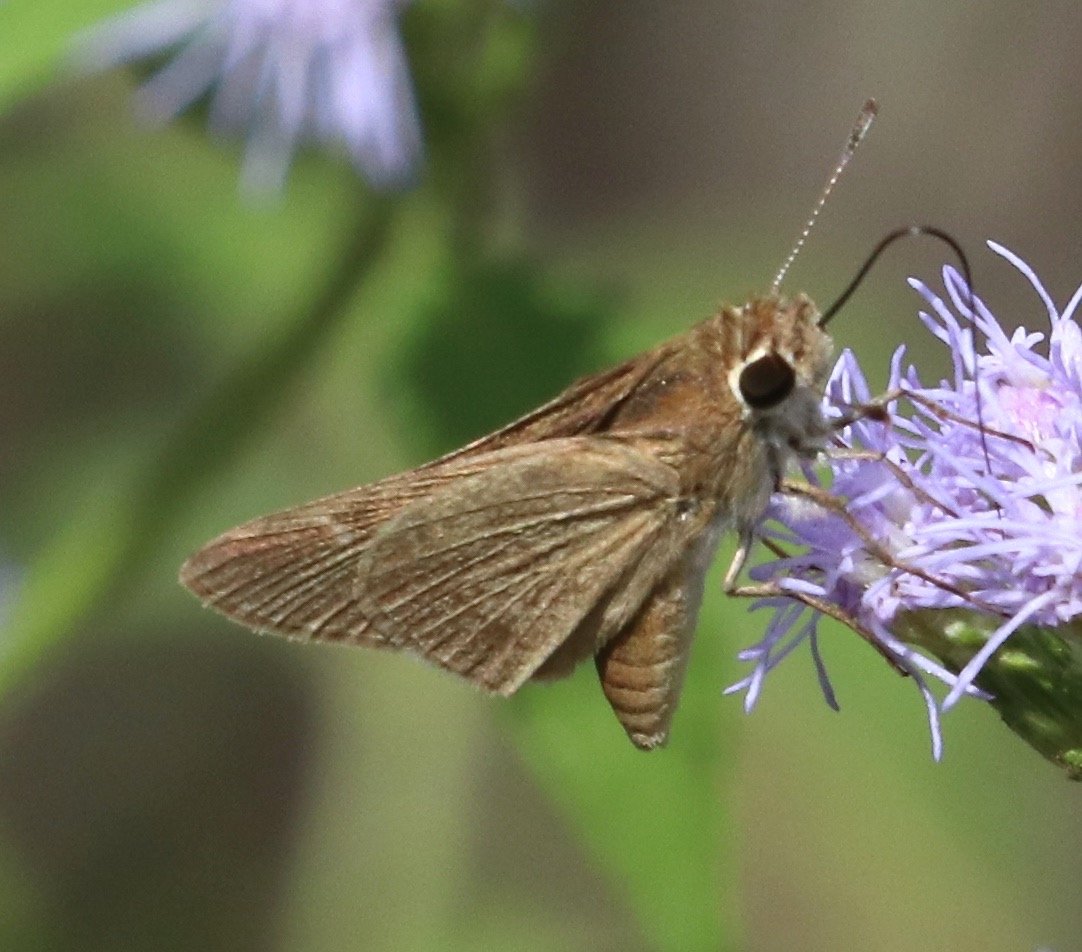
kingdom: Animalia
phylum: Arthropoda
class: Insecta
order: Lepidoptera
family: Hesperiidae
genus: Lerodea
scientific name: Lerodea eufala
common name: Eufala Skipper
